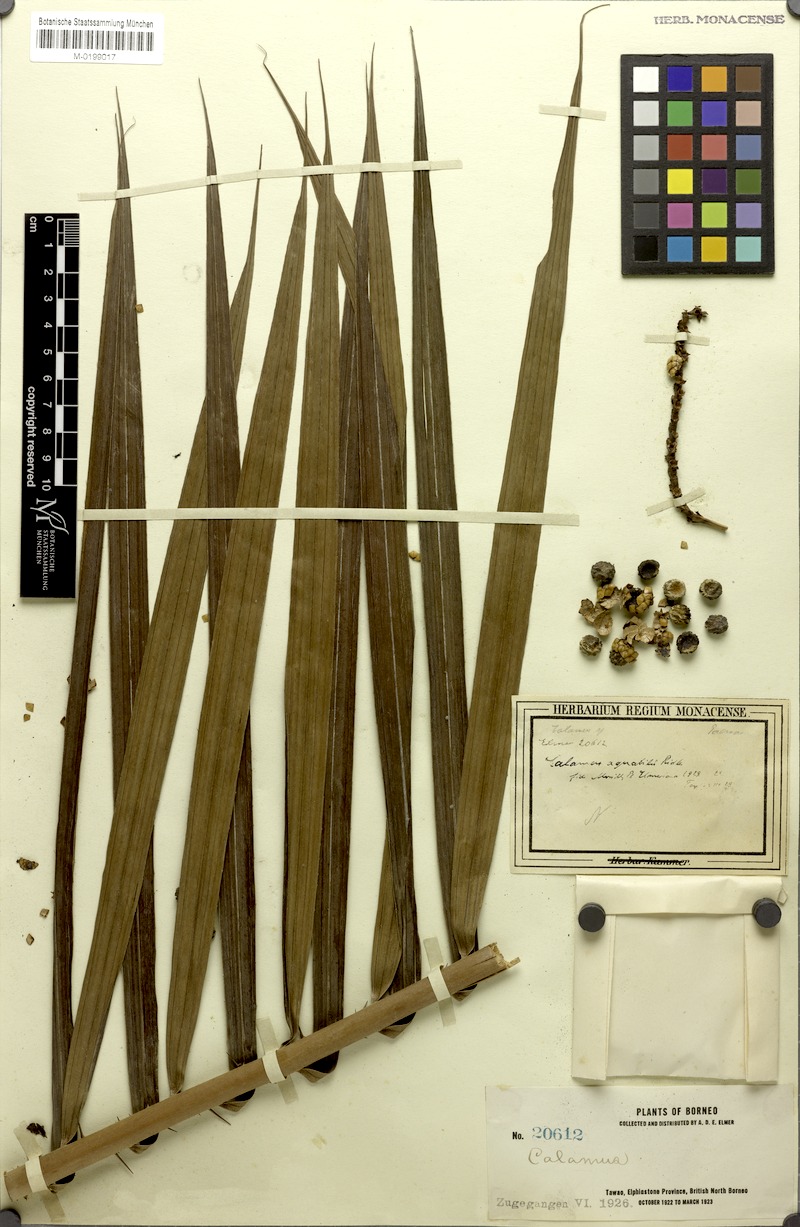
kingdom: Plantae
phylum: Tracheophyta
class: Liliopsida
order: Arecales
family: Arecaceae
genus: Calamus
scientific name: Calamus erinaceus
